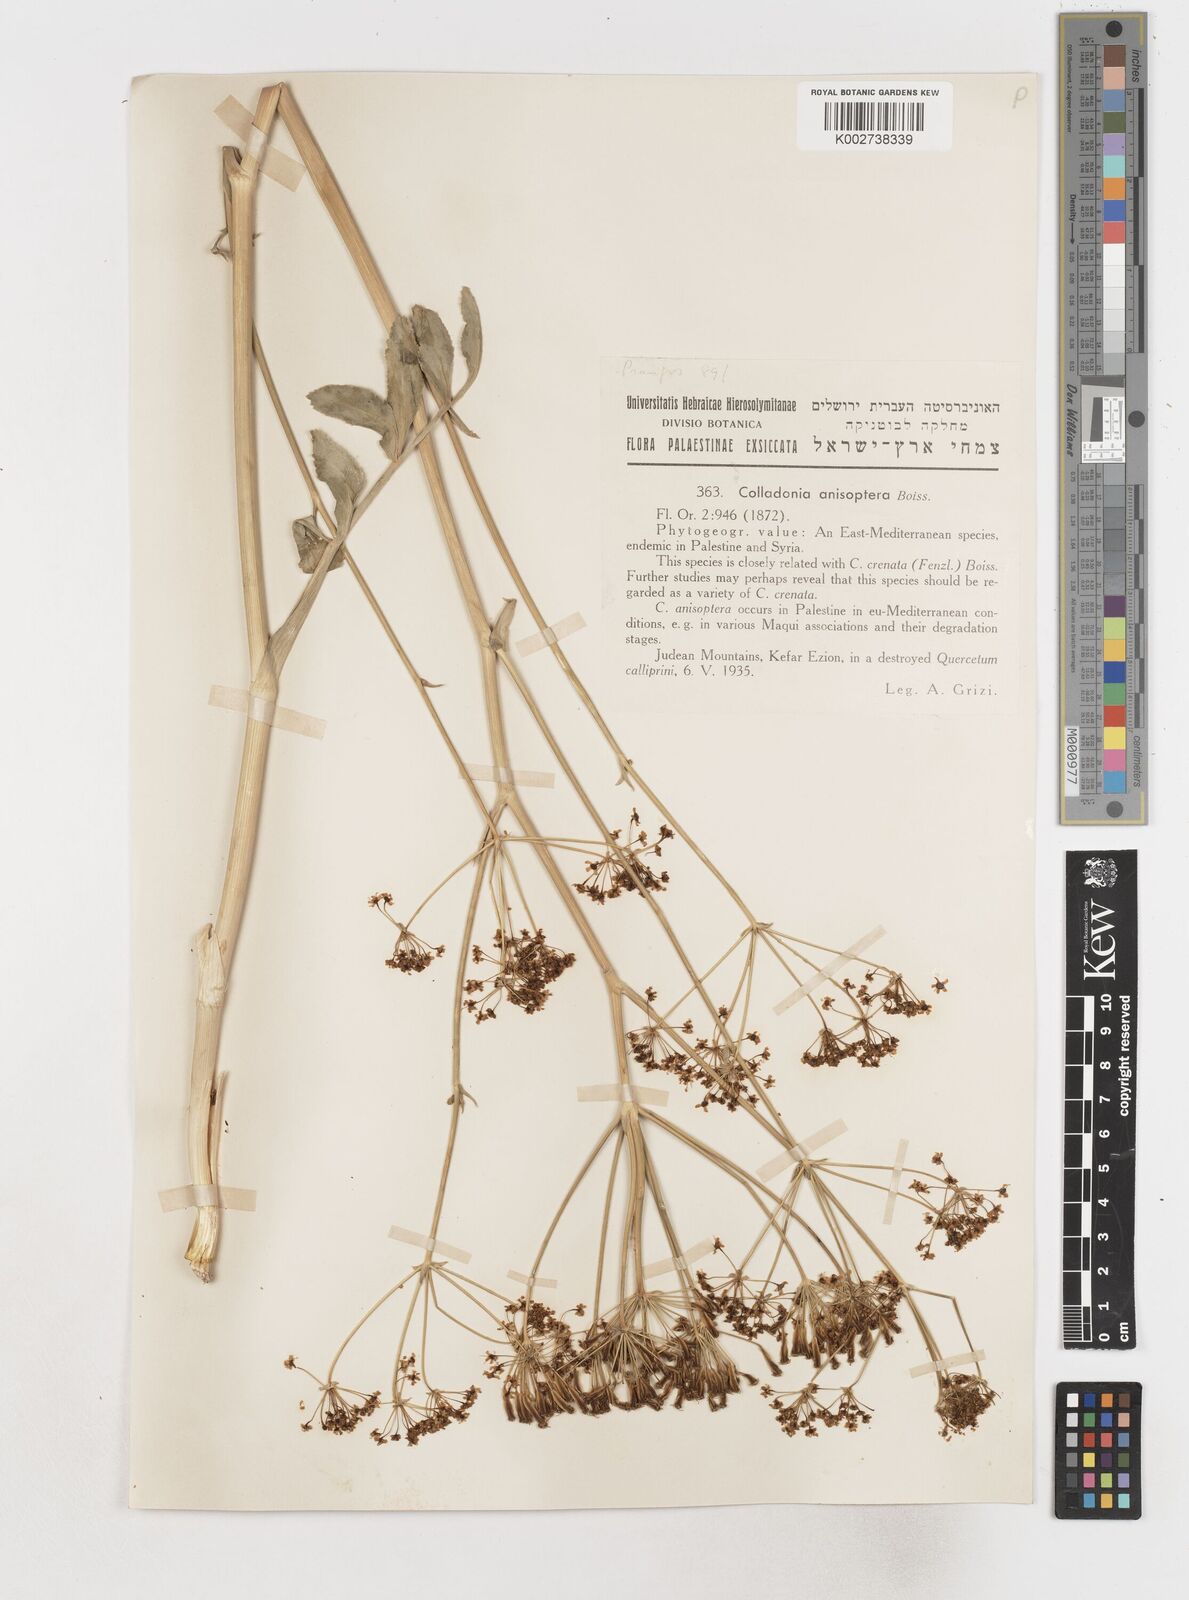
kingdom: Plantae
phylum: Tracheophyta
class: Magnoliopsida
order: Apiales
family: Apiaceae
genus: Heptaptera
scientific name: Heptaptera
